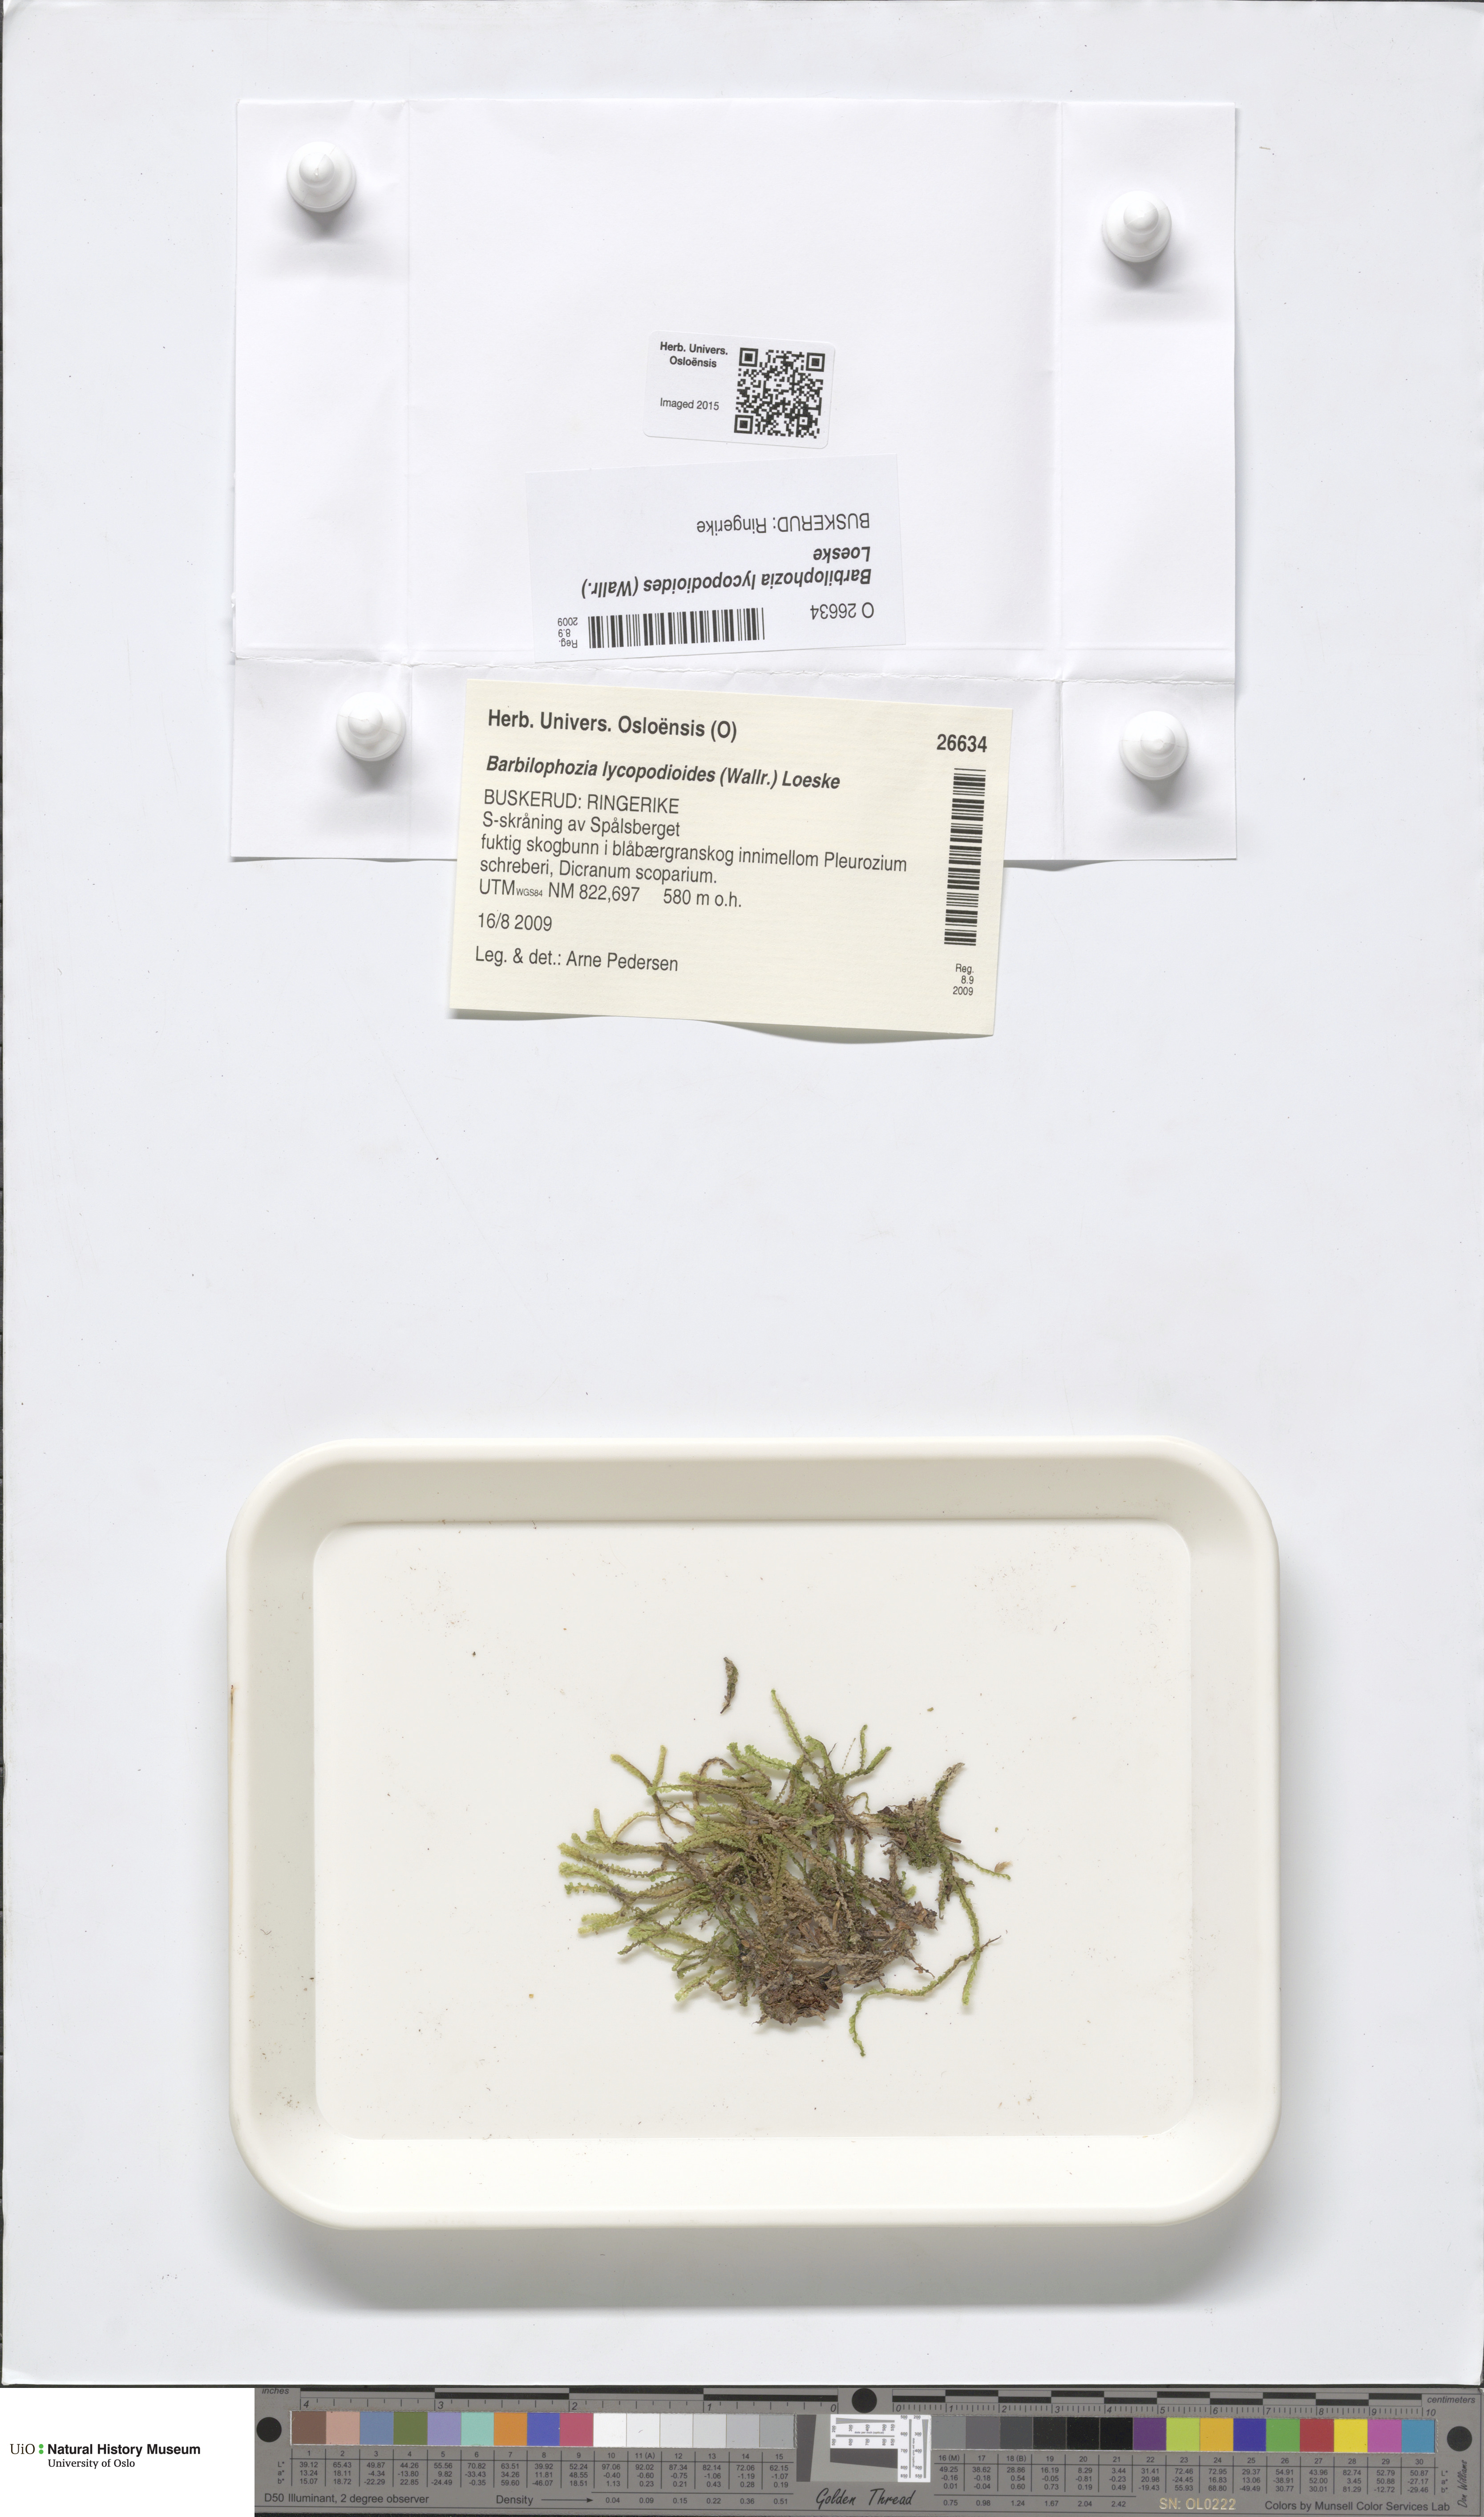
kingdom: Plantae
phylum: Marchantiophyta
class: Jungermanniopsida
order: Jungermanniales
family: Anastrophyllaceae
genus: Barbilophozia
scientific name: Barbilophozia lycopodioides
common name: Greater pawwort
